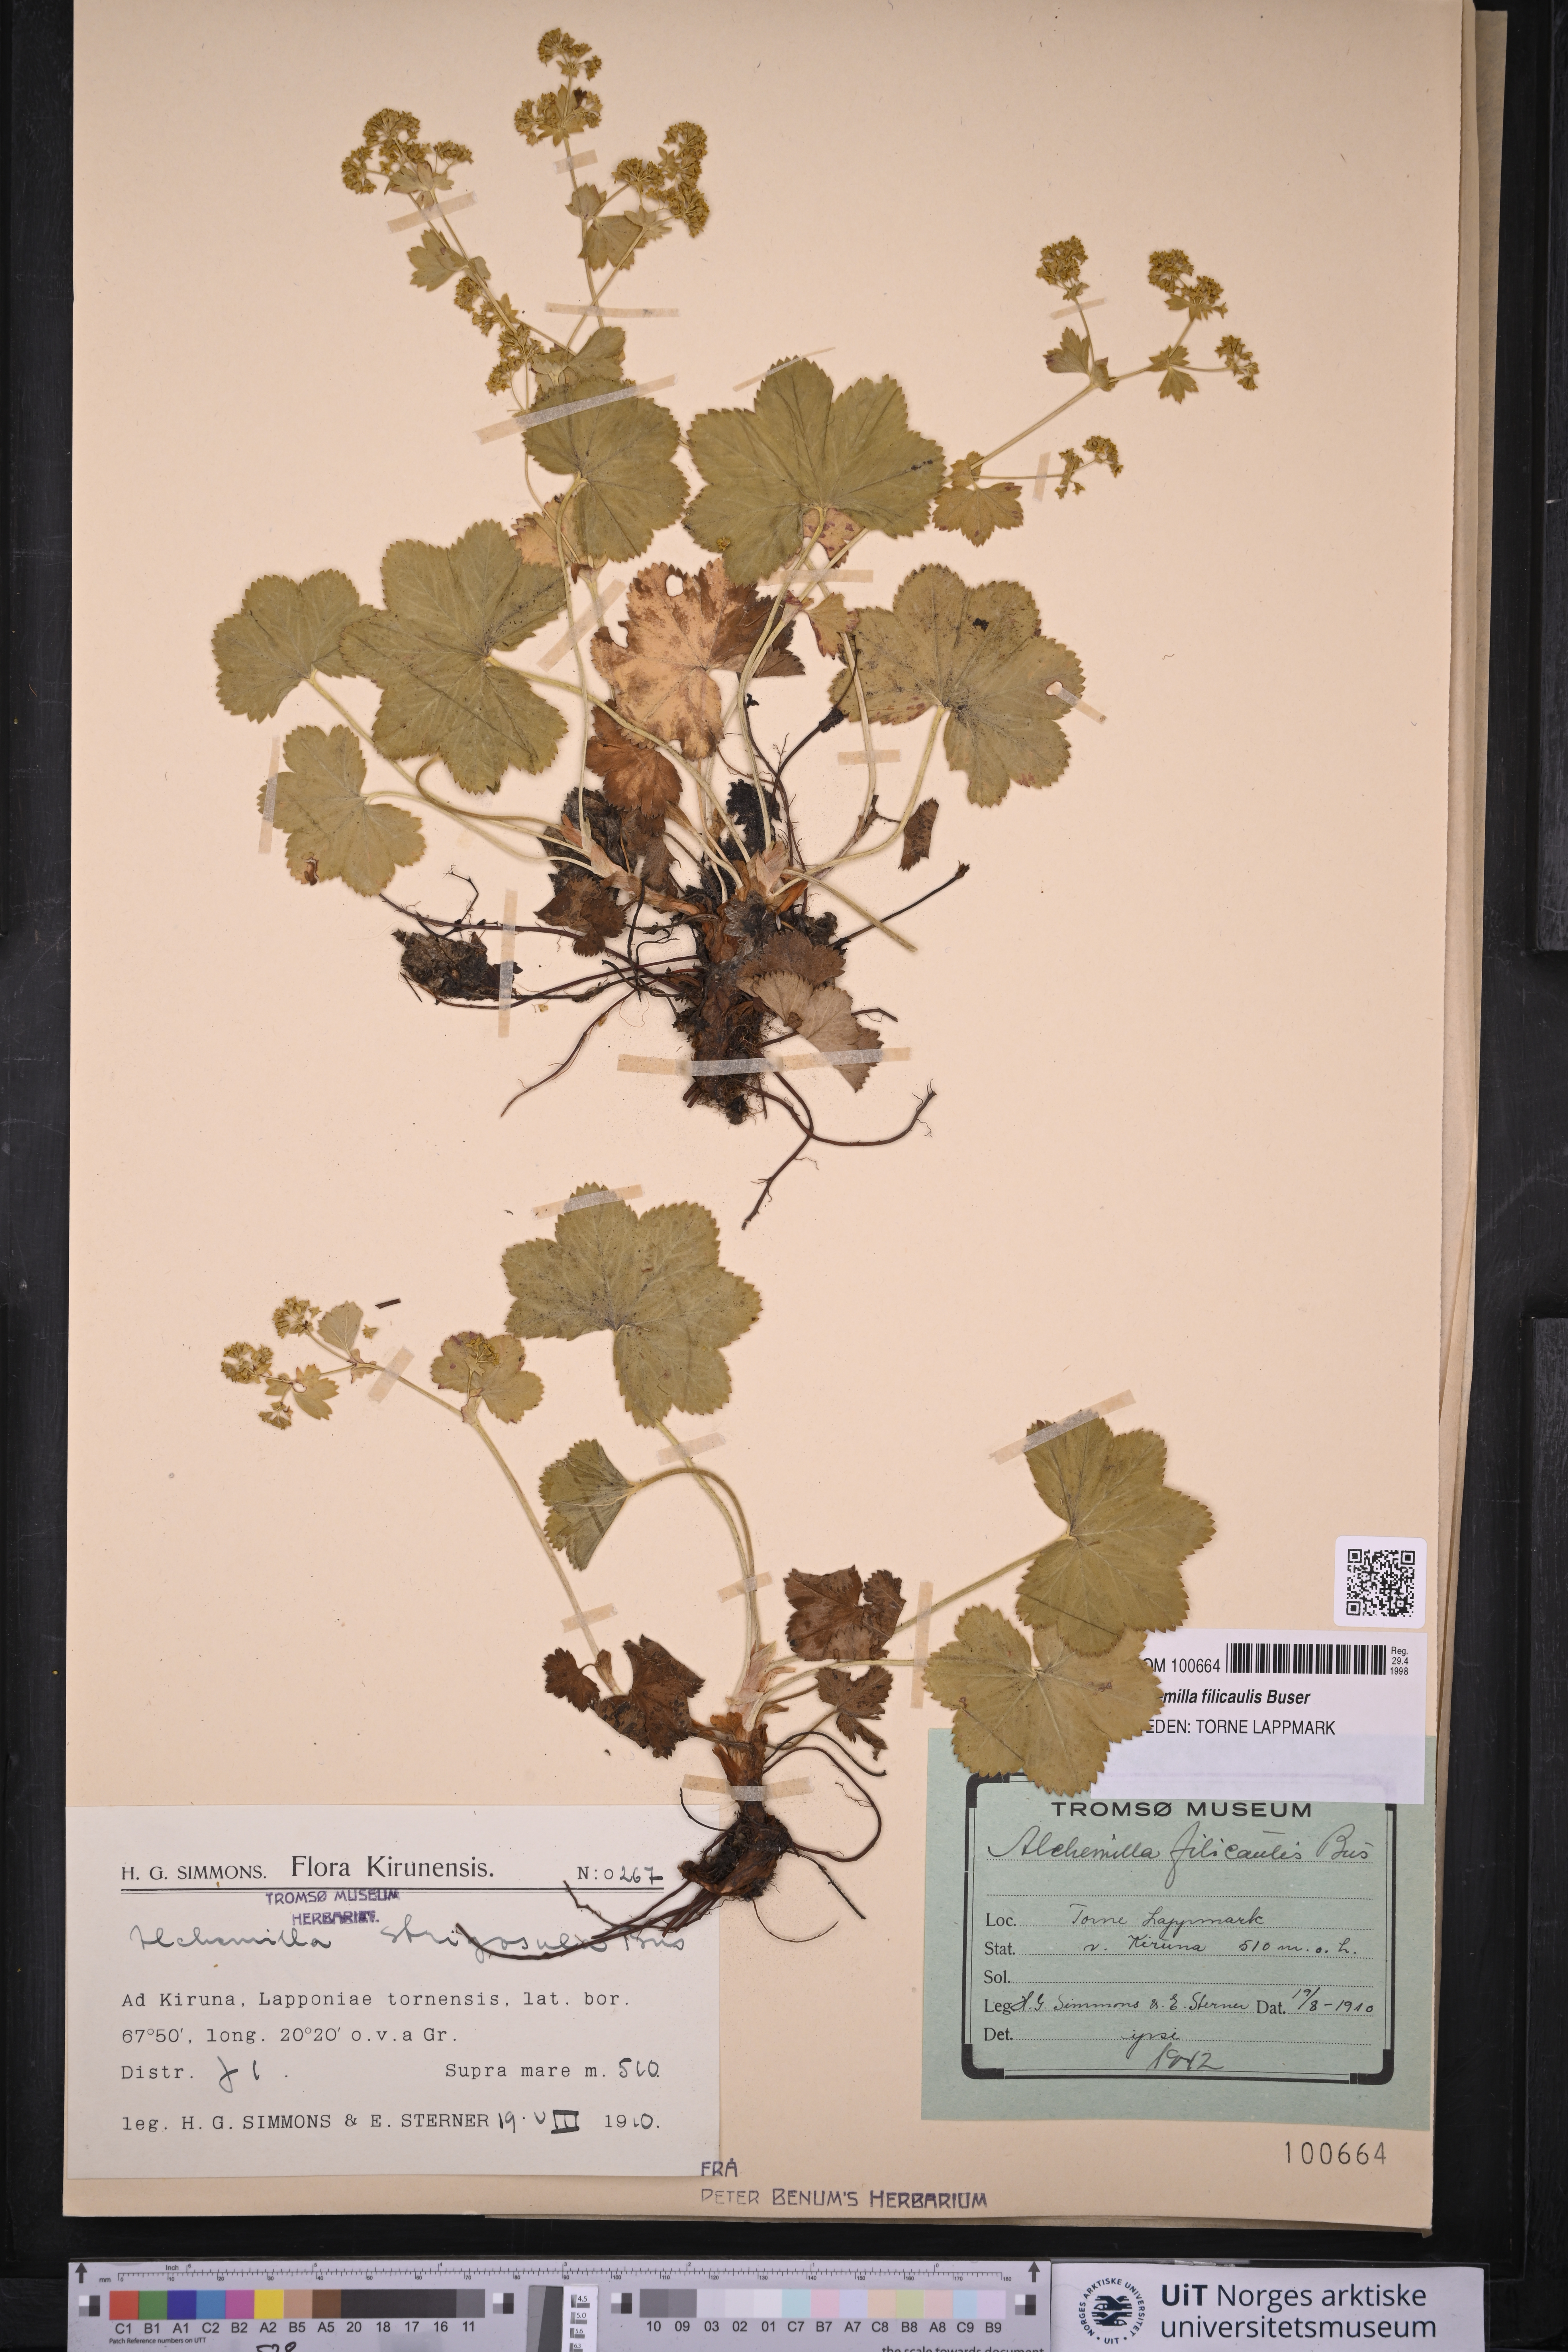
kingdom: Plantae
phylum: Tracheophyta
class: Magnoliopsida
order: Rosales
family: Rosaceae
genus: Alchemilla
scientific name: Alchemilla filicaulis
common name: Hairy lady's-mantle
